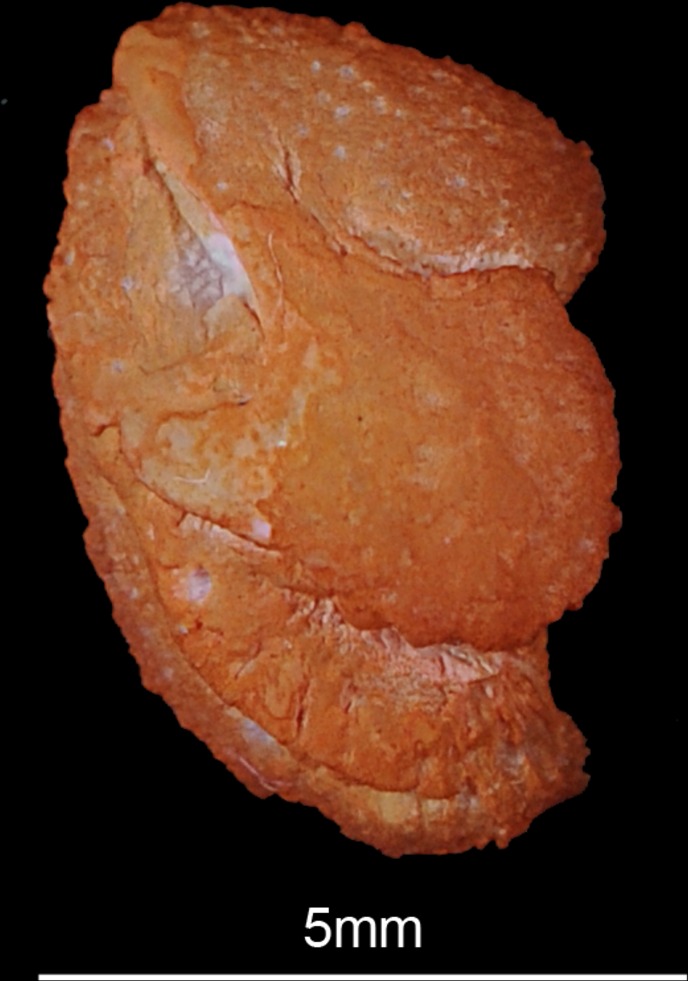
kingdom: Animalia
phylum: Chordata
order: Siluriformes
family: Schilbeidae
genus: Schilbe
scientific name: Schilbe
